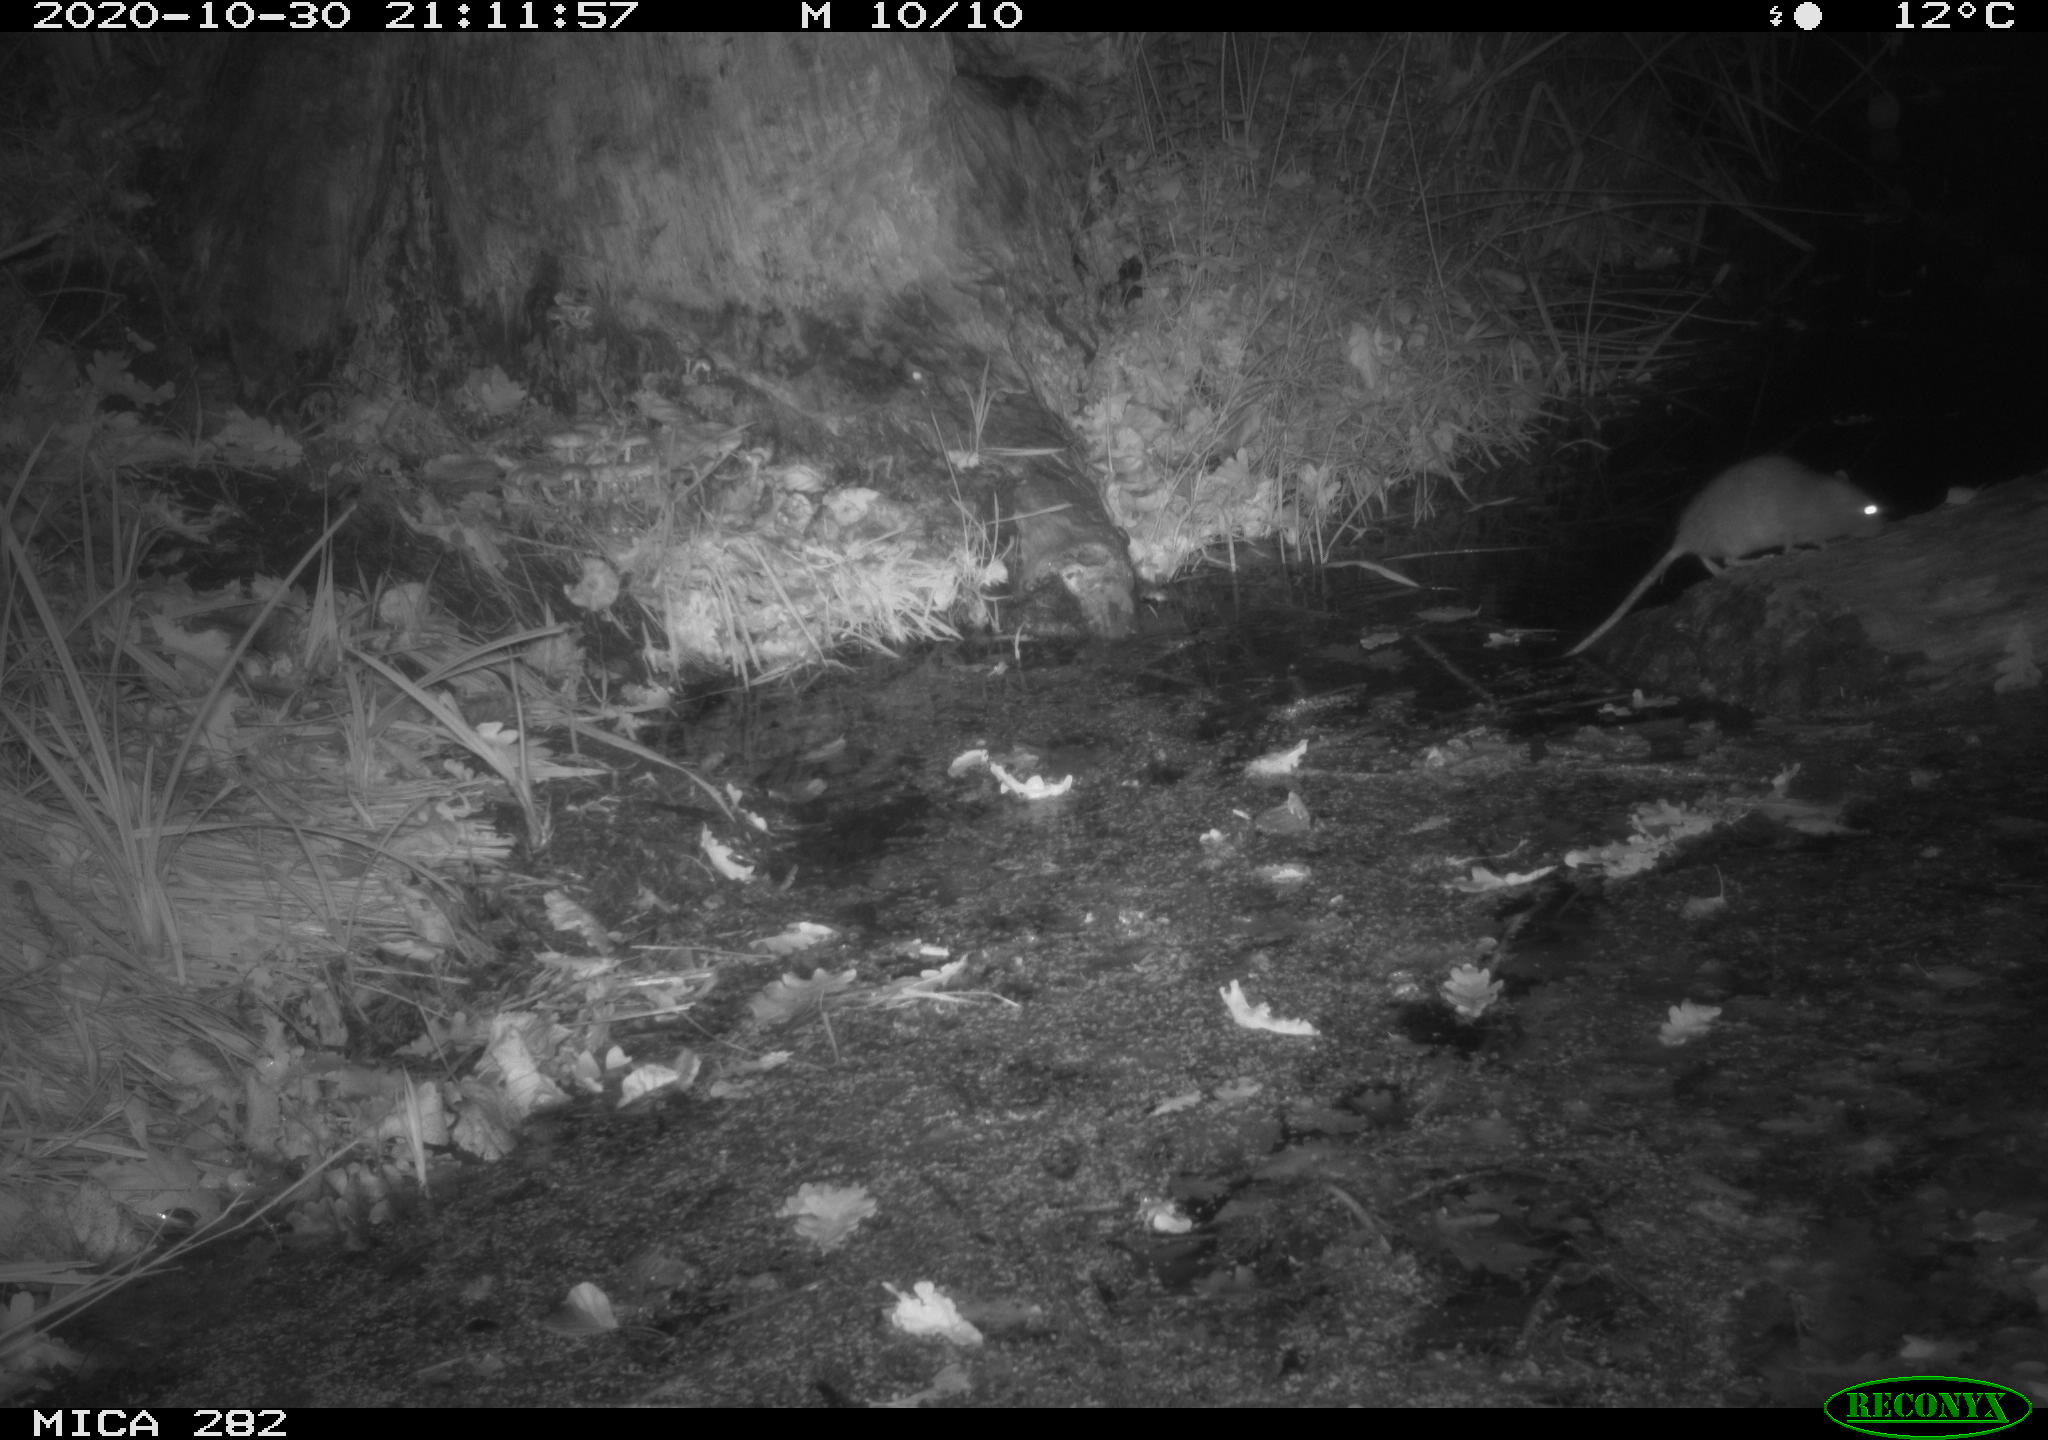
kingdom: Animalia
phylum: Chordata
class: Mammalia
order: Rodentia
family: Muridae
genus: Rattus
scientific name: Rattus norvegicus
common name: Brown rat
